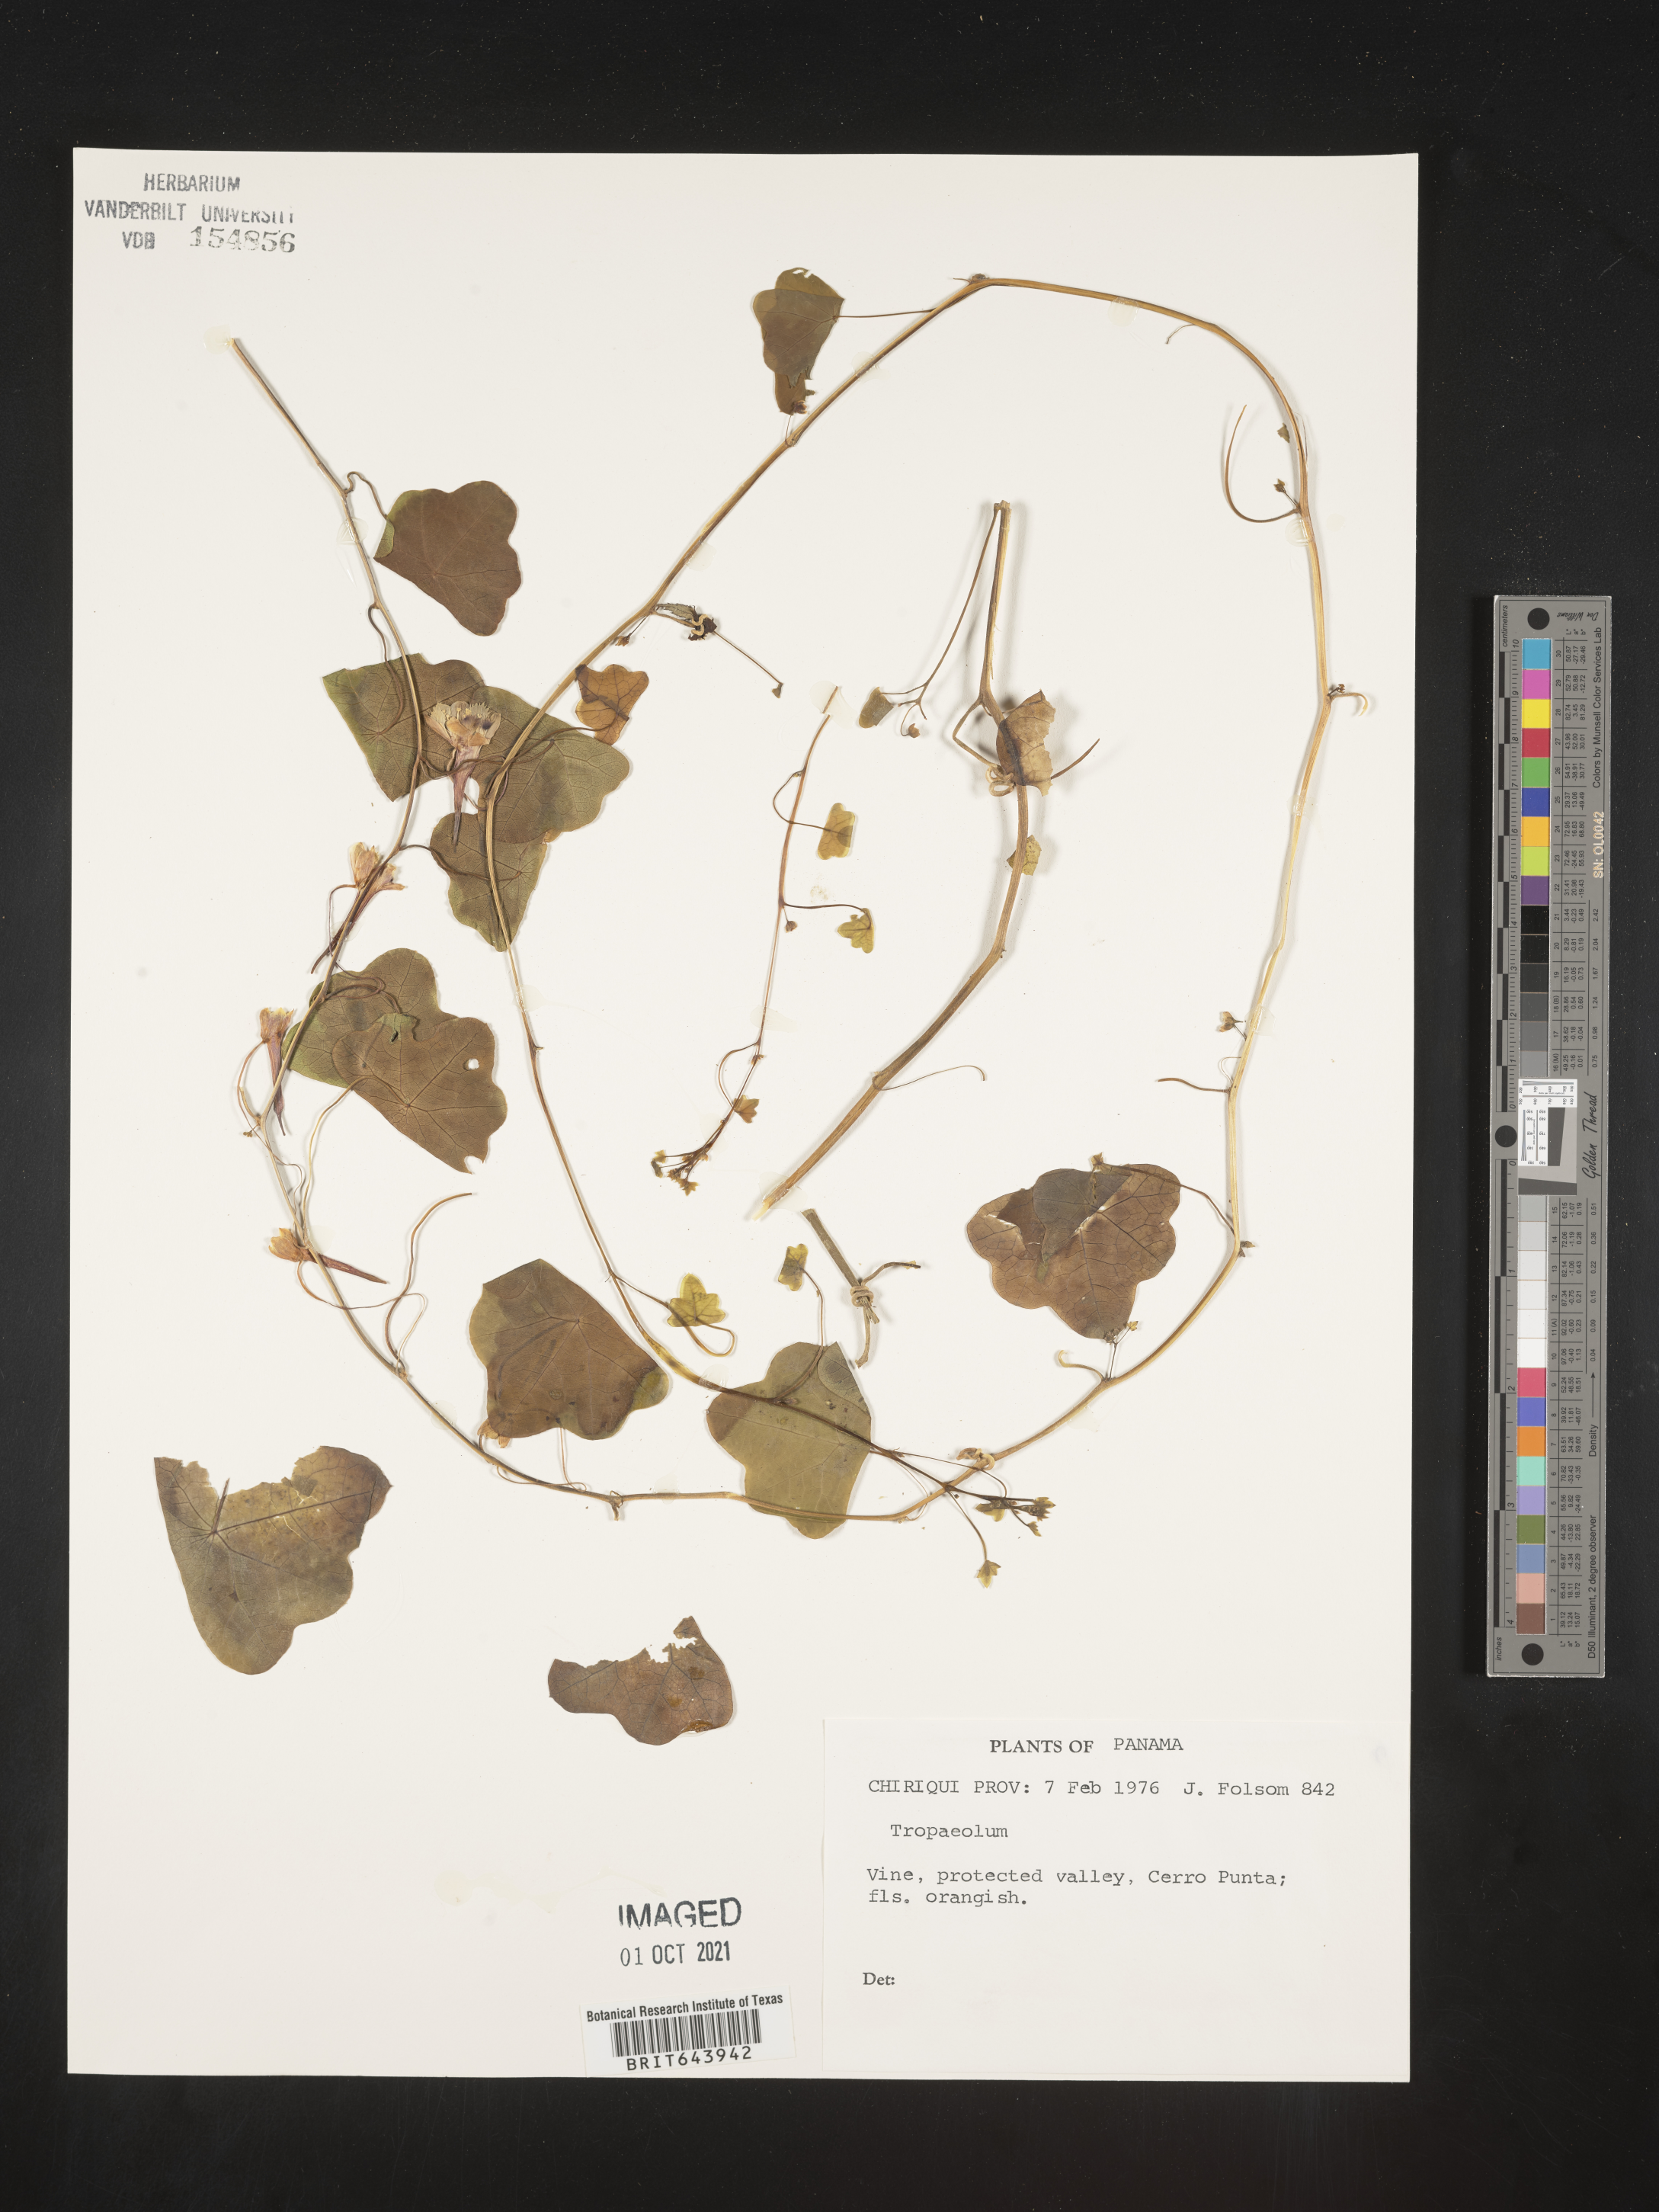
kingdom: Plantae
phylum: Tracheophyta
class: Magnoliopsida
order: Brassicales
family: Tropaeolaceae
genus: Tropaeolum
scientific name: Tropaeolum
